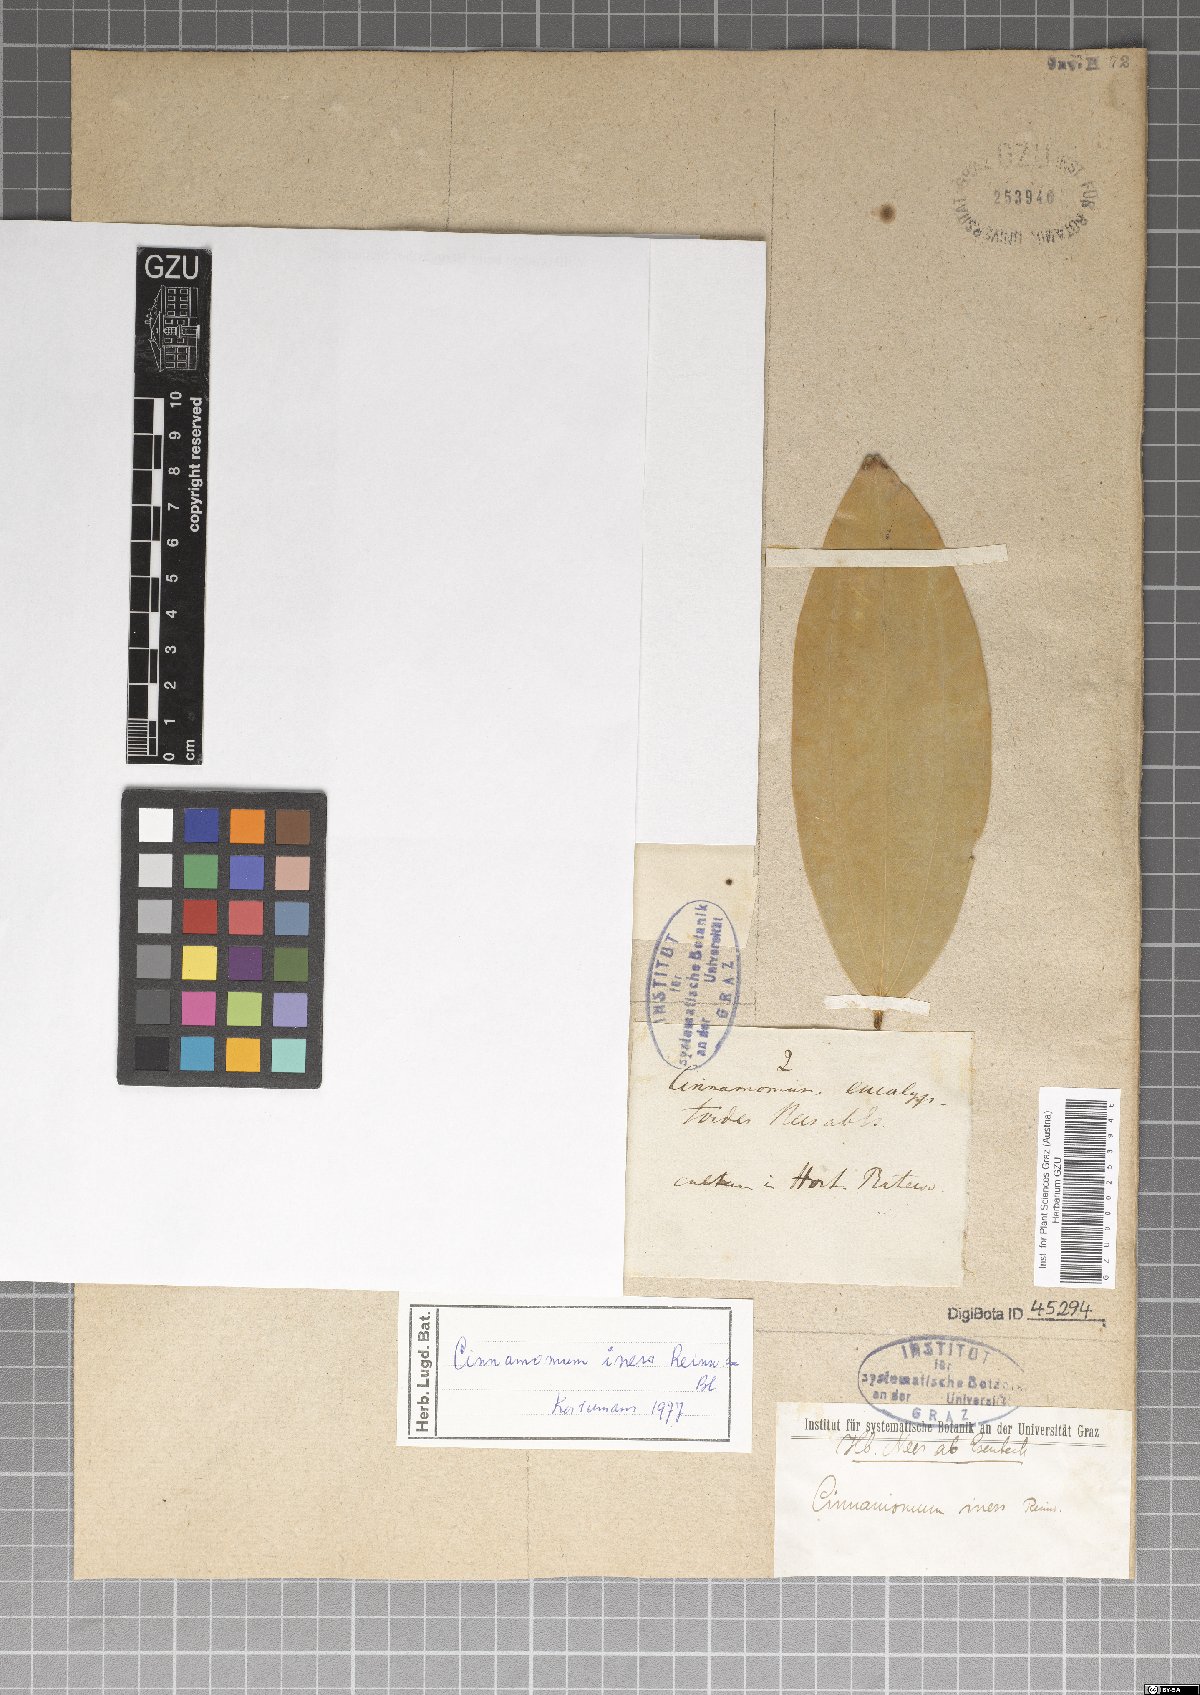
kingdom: Plantae
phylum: Tracheophyta
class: Magnoliopsida
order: Laurales
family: Lauraceae
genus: Cinnamomum
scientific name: Cinnamomum iners
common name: Wild cinnamon
